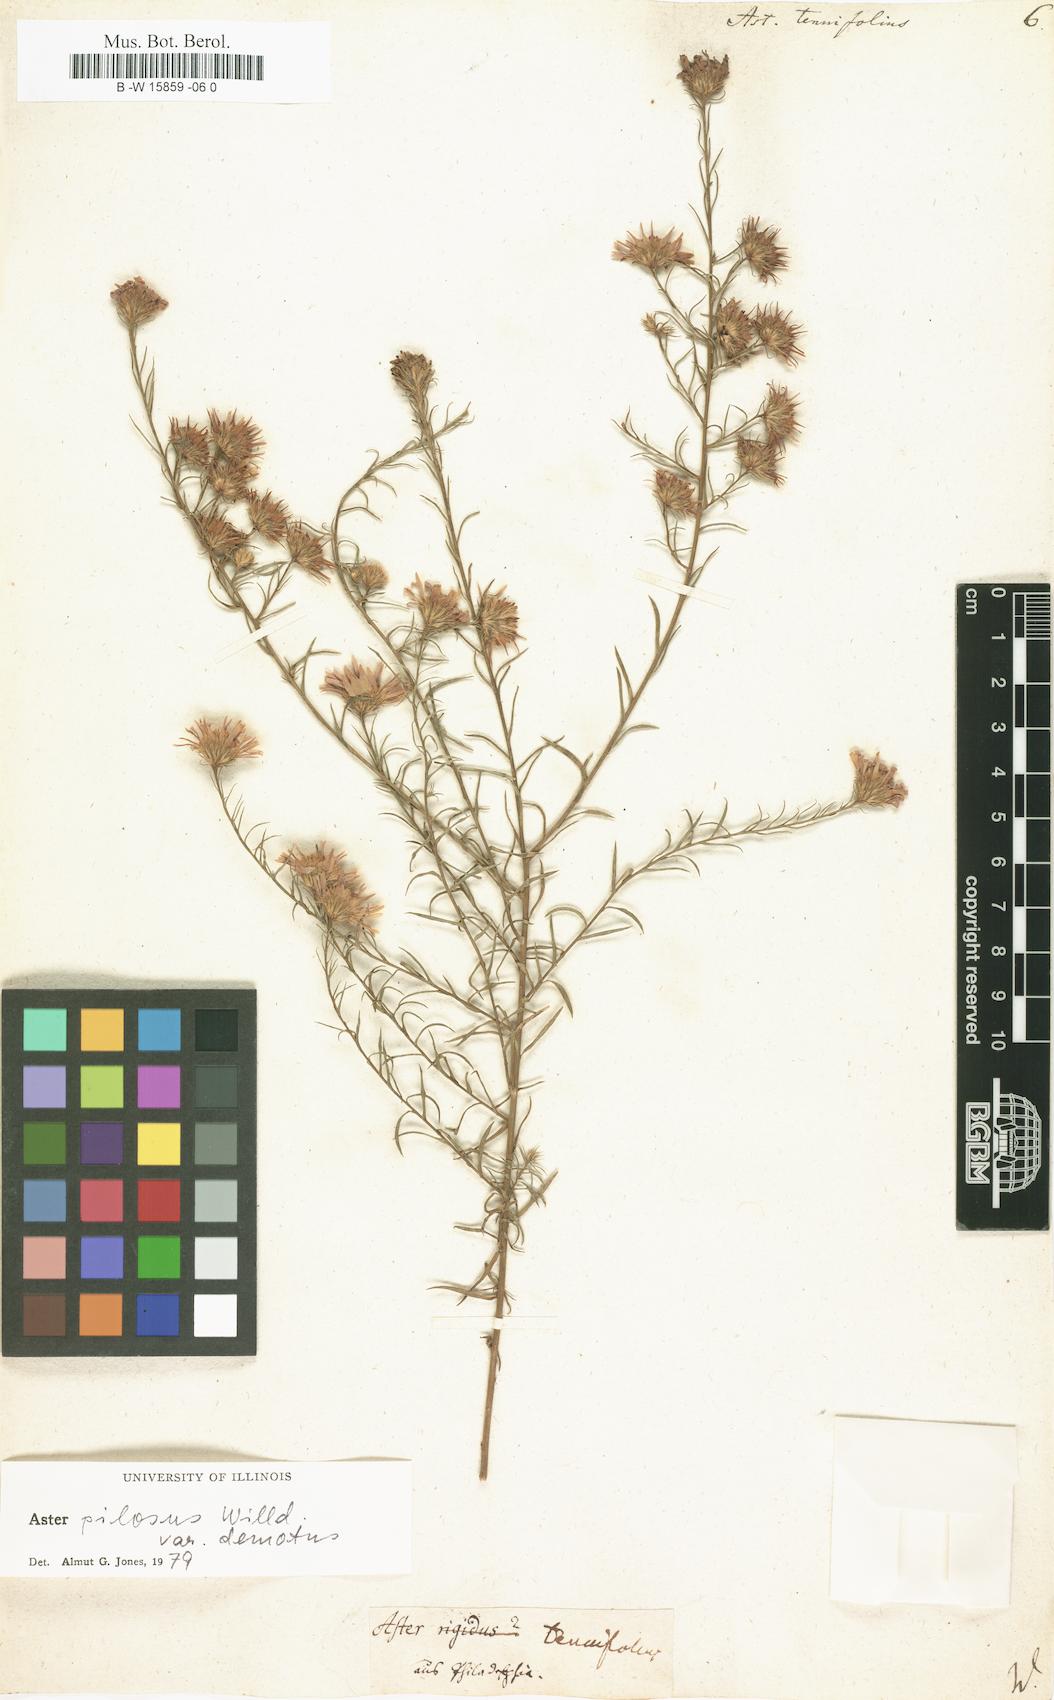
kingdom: Plantae
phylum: Tracheophyta
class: Magnoliopsida
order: Asterales
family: Asteraceae
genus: Aster
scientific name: Aster tenuifolius
